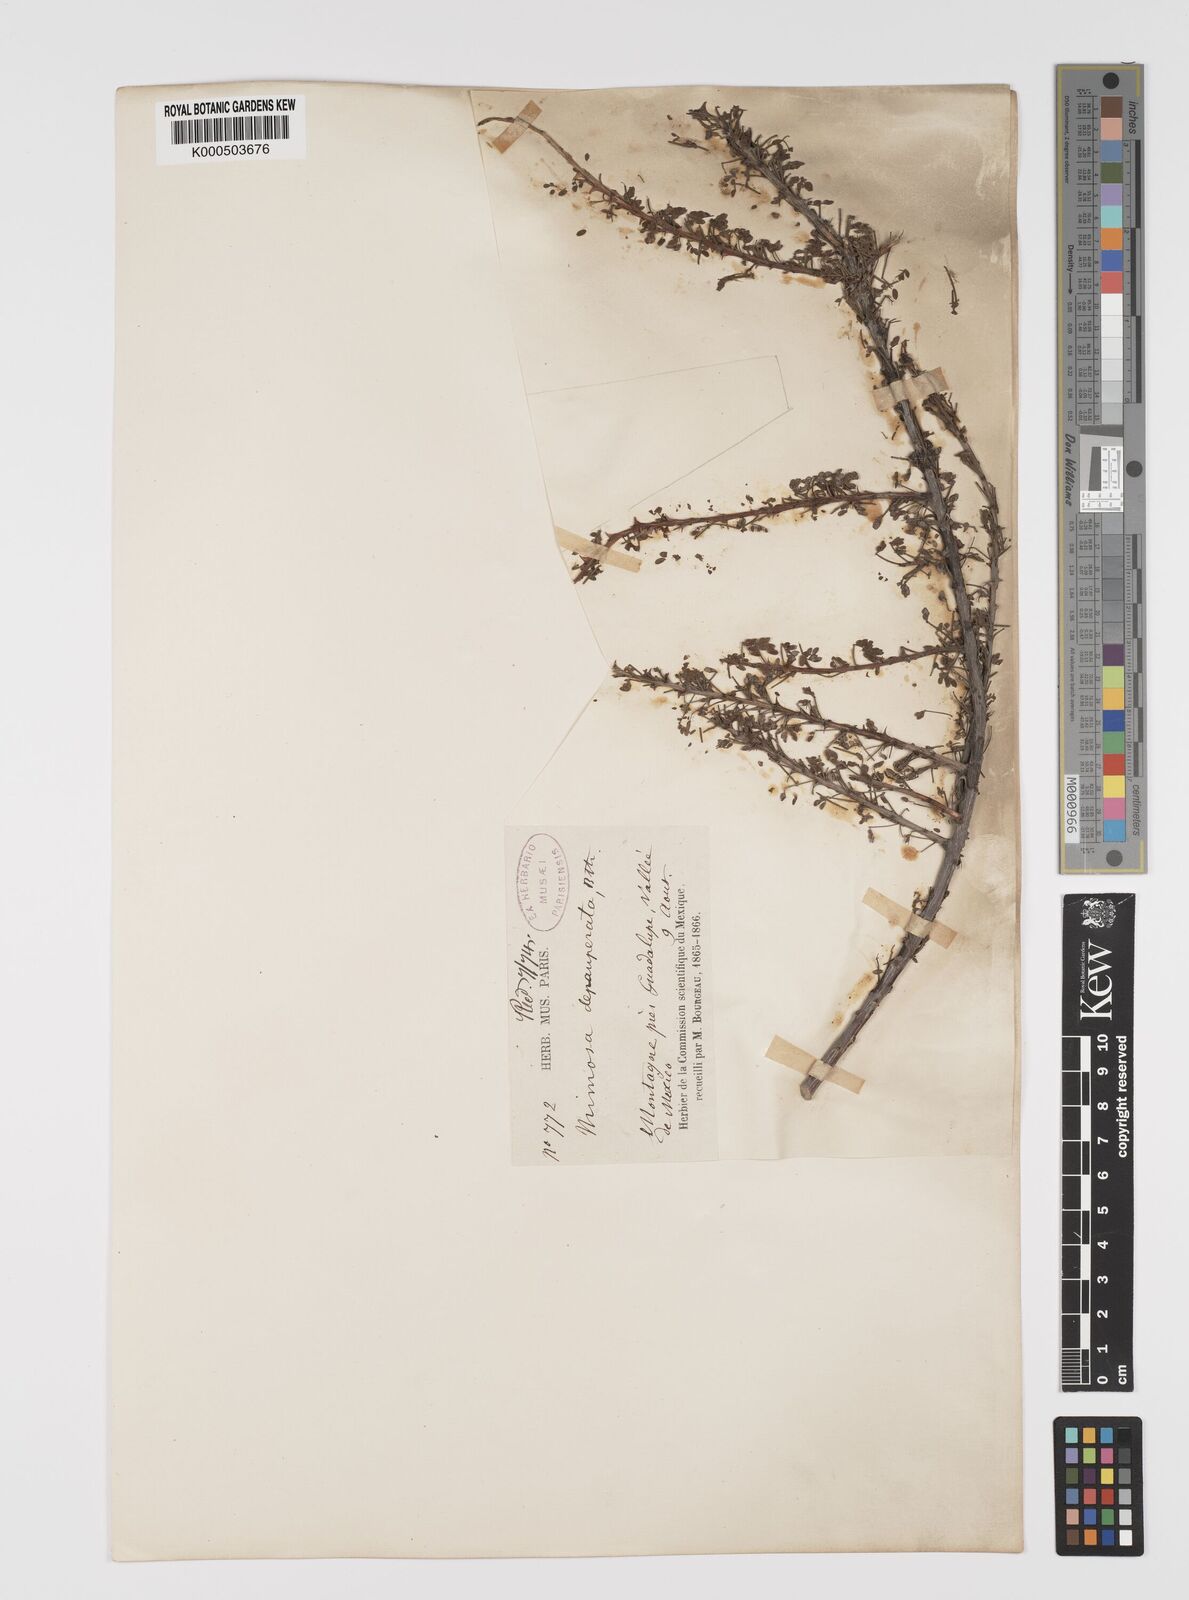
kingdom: Plantae
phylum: Tracheophyta
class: Magnoliopsida
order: Fabales
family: Fabaceae
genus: Mimosa
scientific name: Mimosa depauperata
